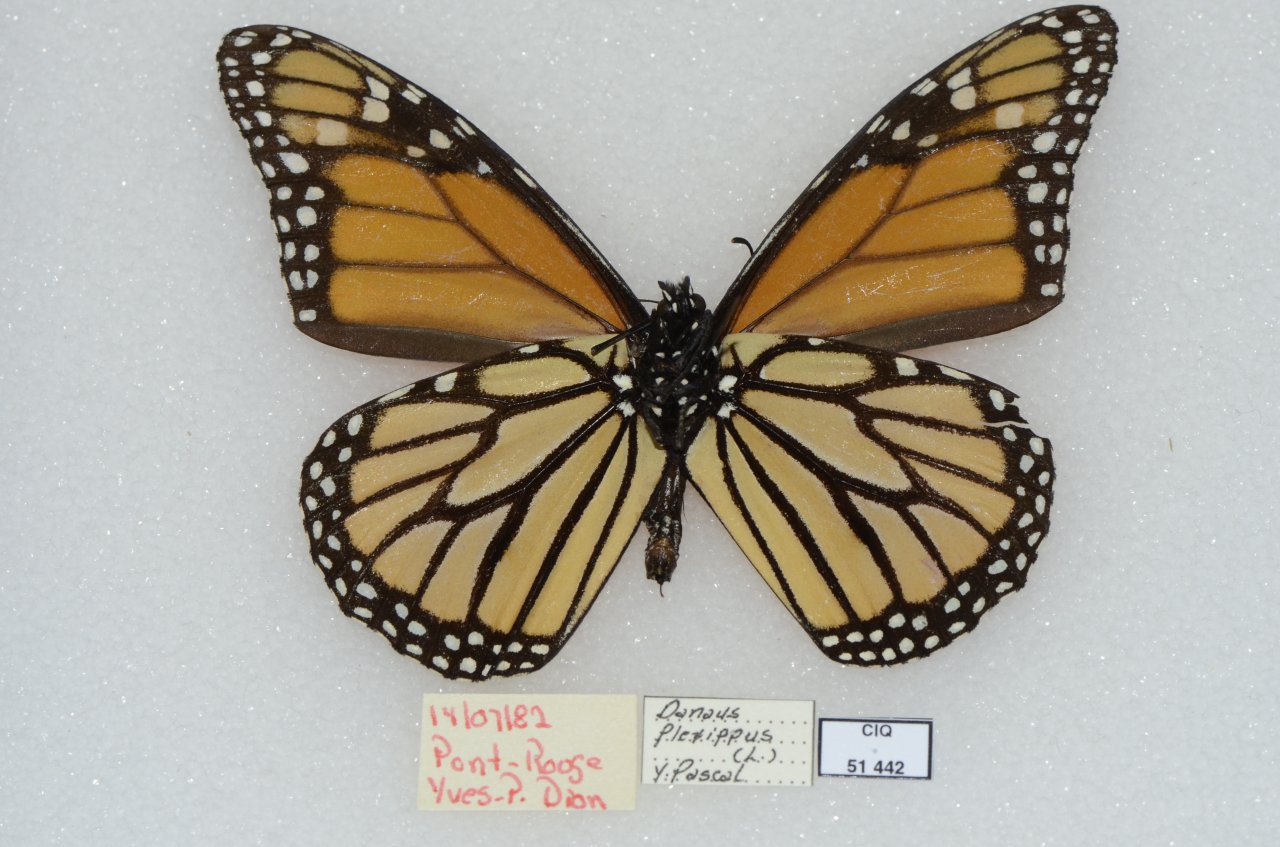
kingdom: Animalia
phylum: Arthropoda
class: Insecta
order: Lepidoptera
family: Nymphalidae
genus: Danaus
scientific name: Danaus plexippus
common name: Monarch
